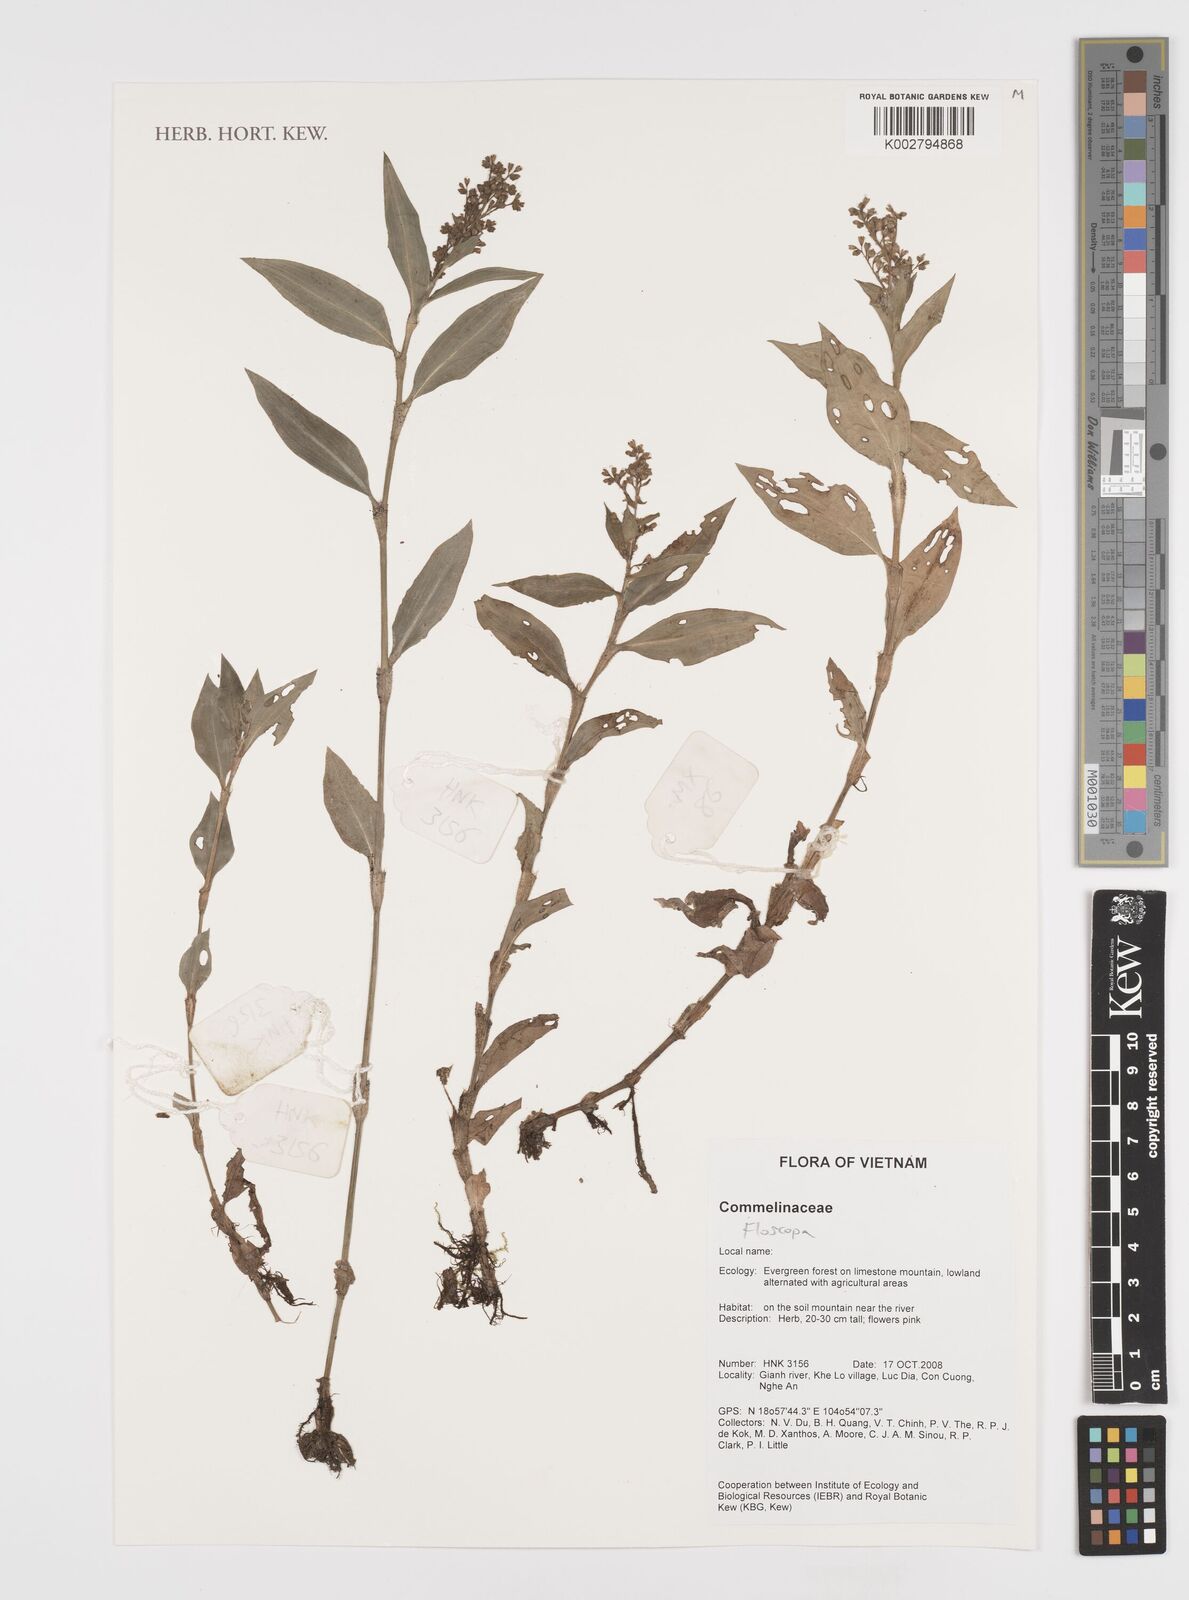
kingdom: Plantae
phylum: Tracheophyta
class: Liliopsida
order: Commelinales
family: Commelinaceae
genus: Floscopa
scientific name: Floscopa
